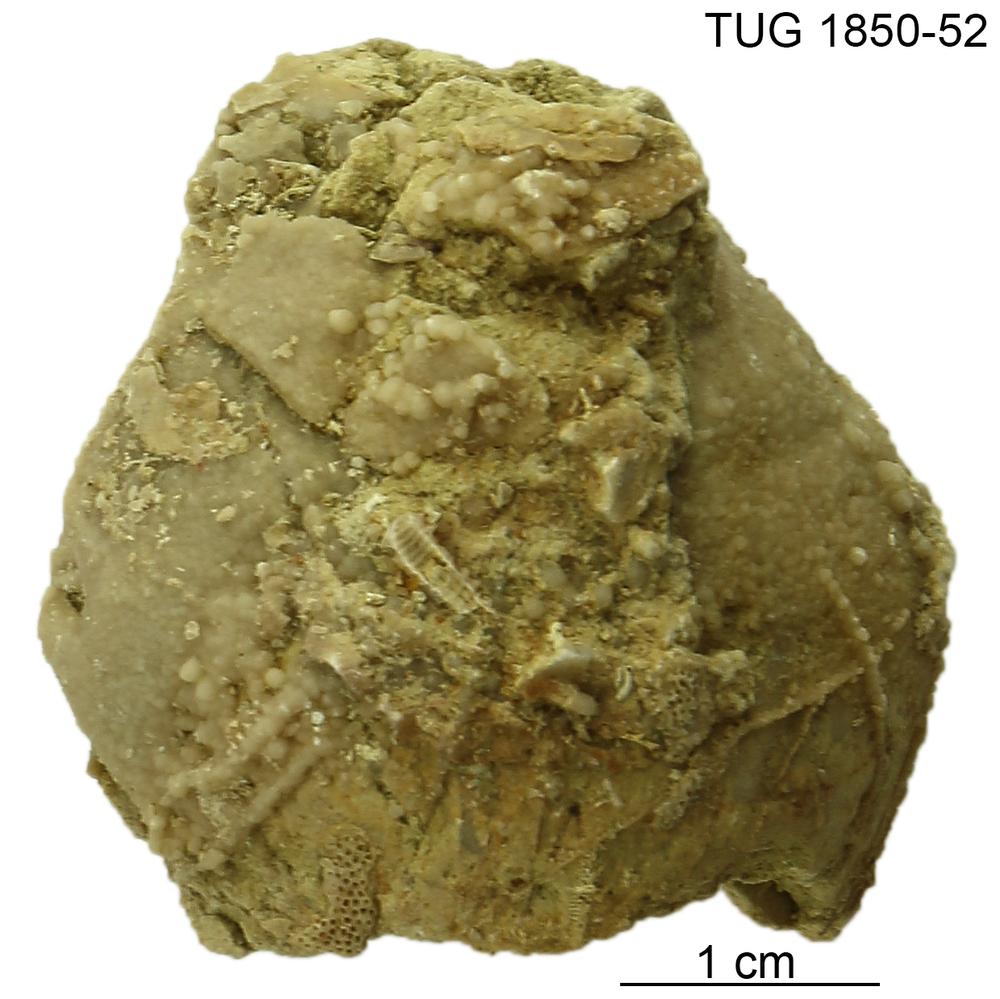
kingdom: Animalia
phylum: Porifera
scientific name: Porifera
